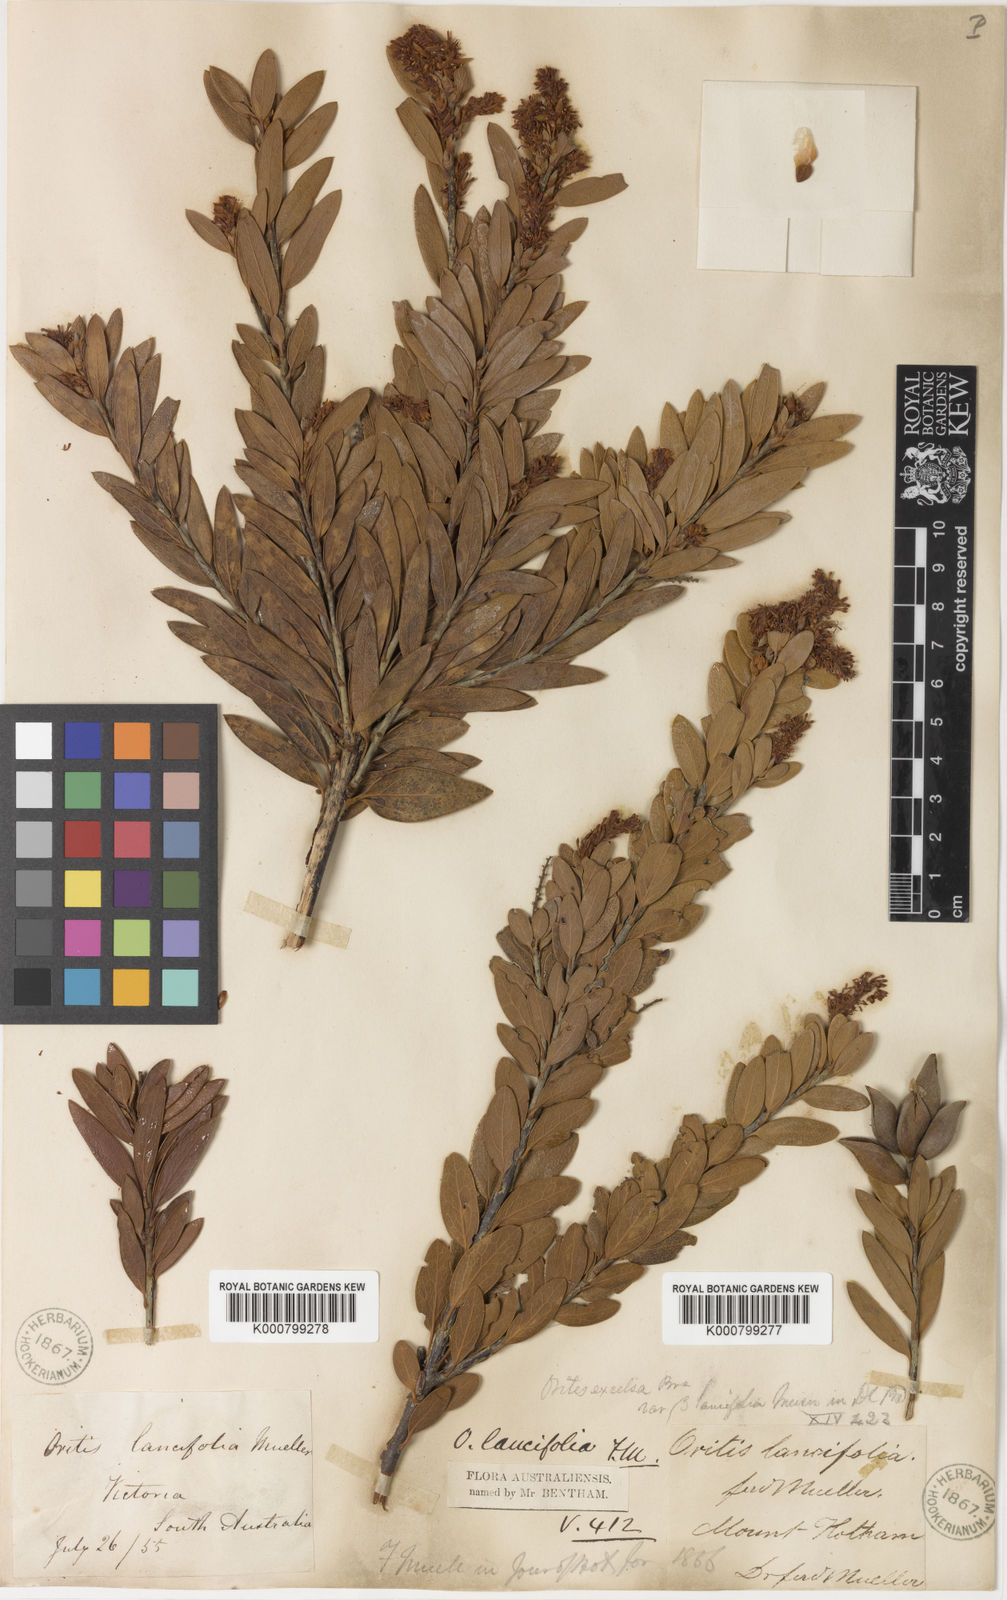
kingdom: Plantae
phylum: Tracheophyta
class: Magnoliopsida
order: Proteales
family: Proteaceae
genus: Orites
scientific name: Orites lancifolius
